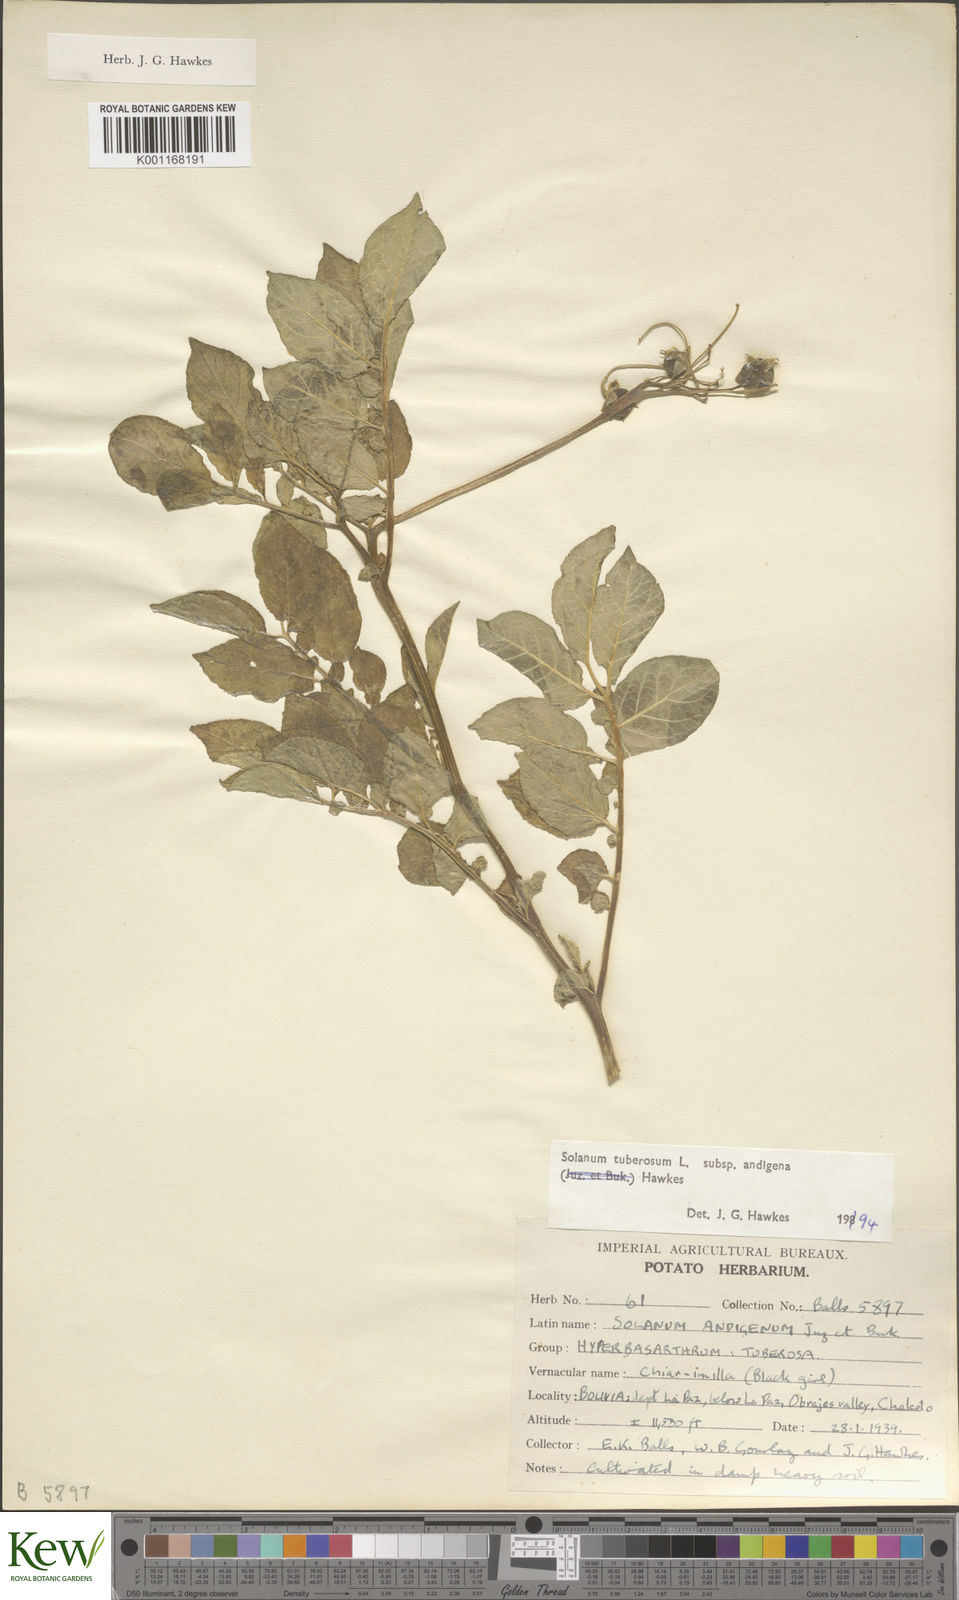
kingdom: Plantae
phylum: Tracheophyta
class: Magnoliopsida
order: Solanales
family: Solanaceae
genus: Solanum
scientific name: Solanum tuberosum
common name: Potato
